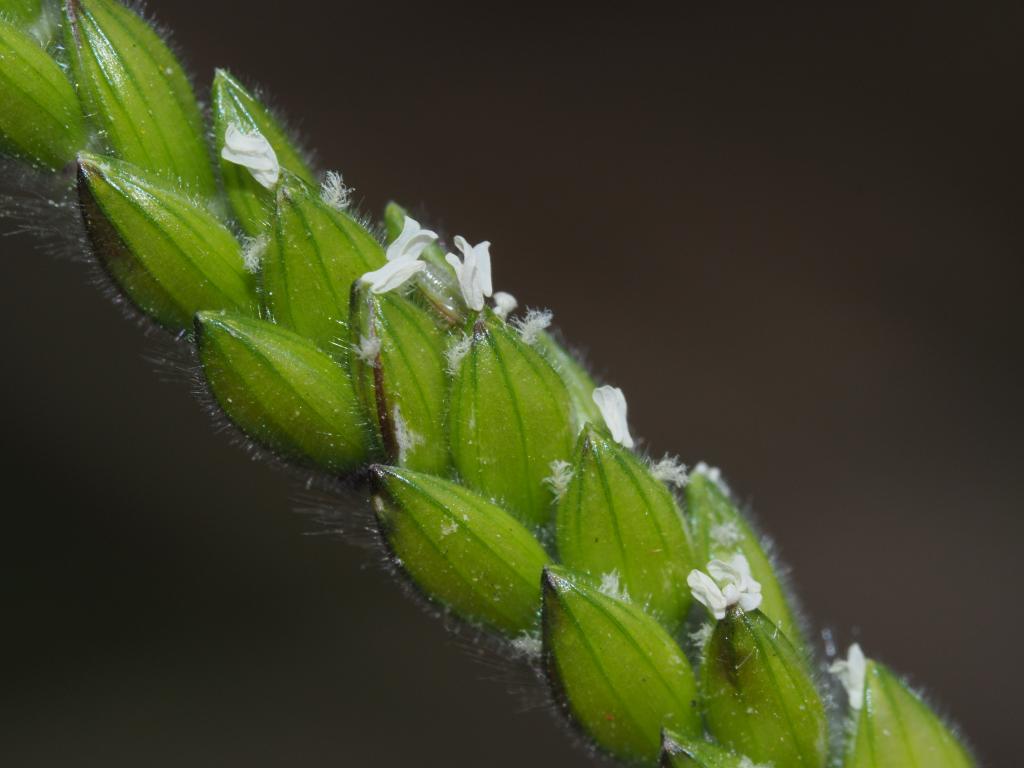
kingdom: Plantae
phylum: Tracheophyta
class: Liliopsida
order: Poales
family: Poaceae
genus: Eriochloa
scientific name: Eriochloa villosa
